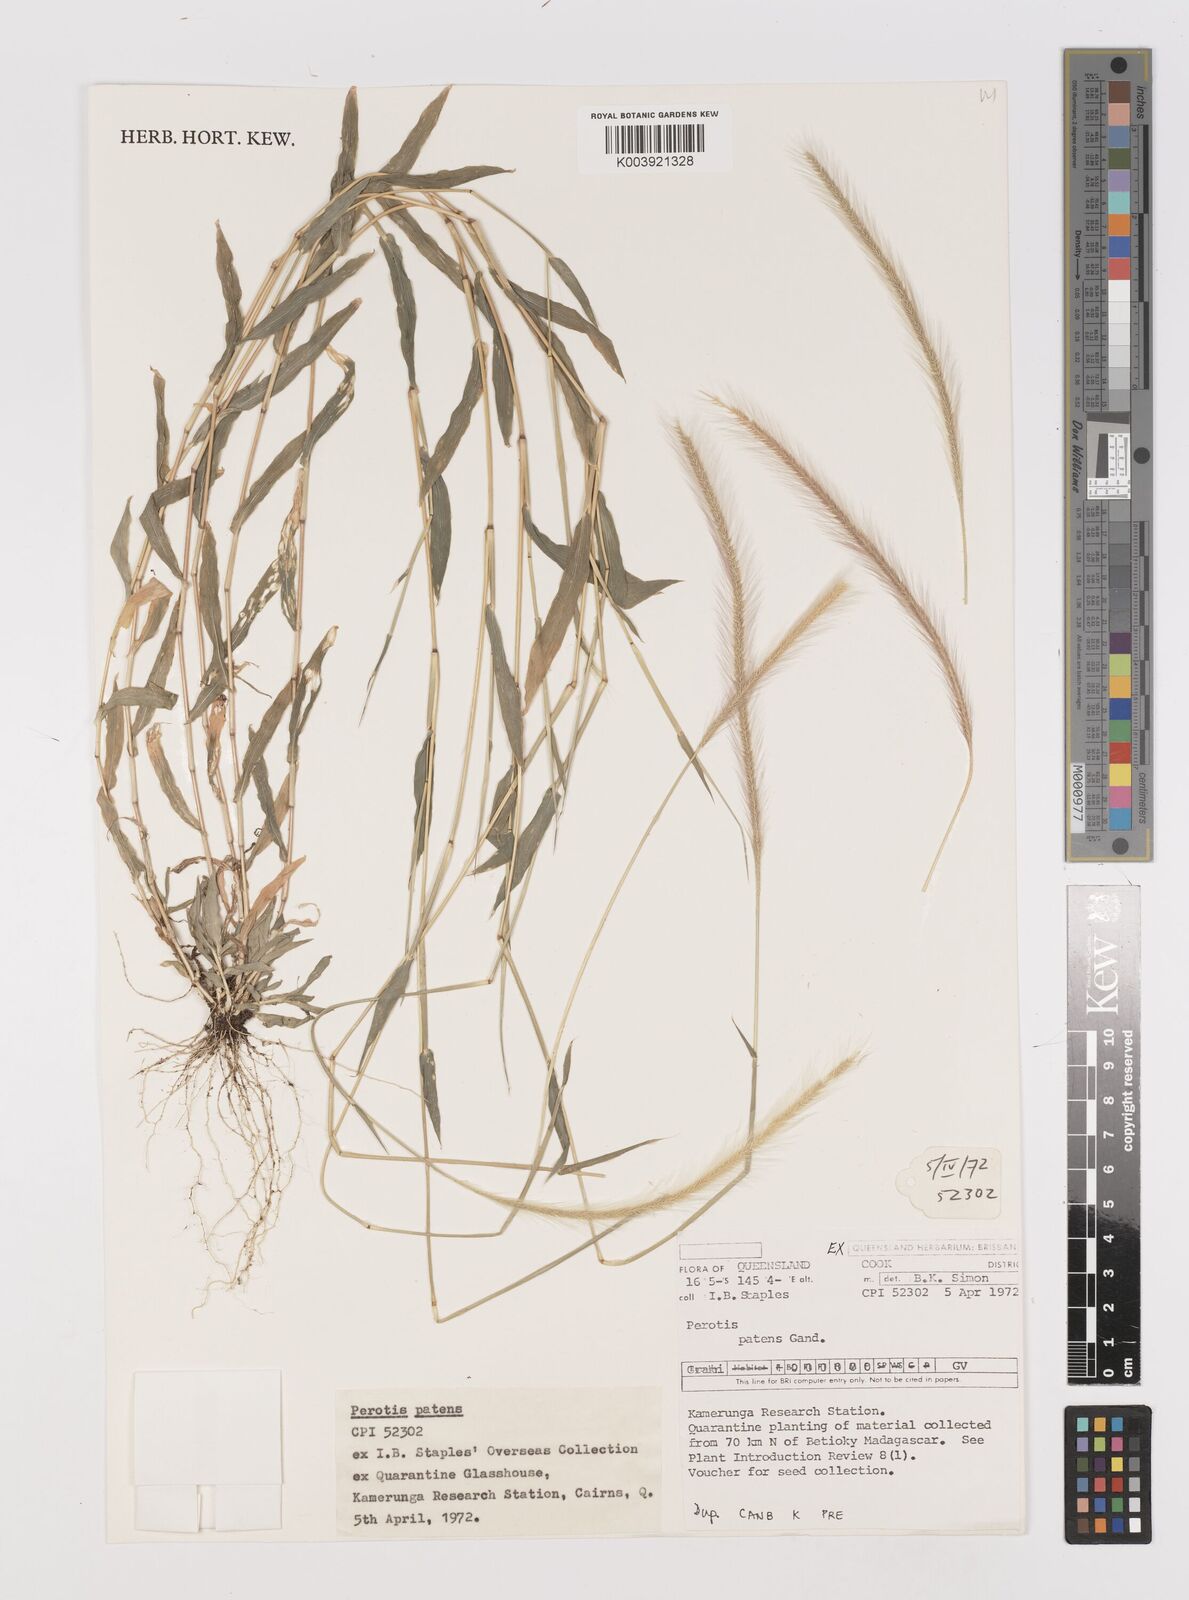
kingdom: Plantae
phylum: Tracheophyta
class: Liliopsida
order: Poales
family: Poaceae
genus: Perotis
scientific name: Perotis patens
